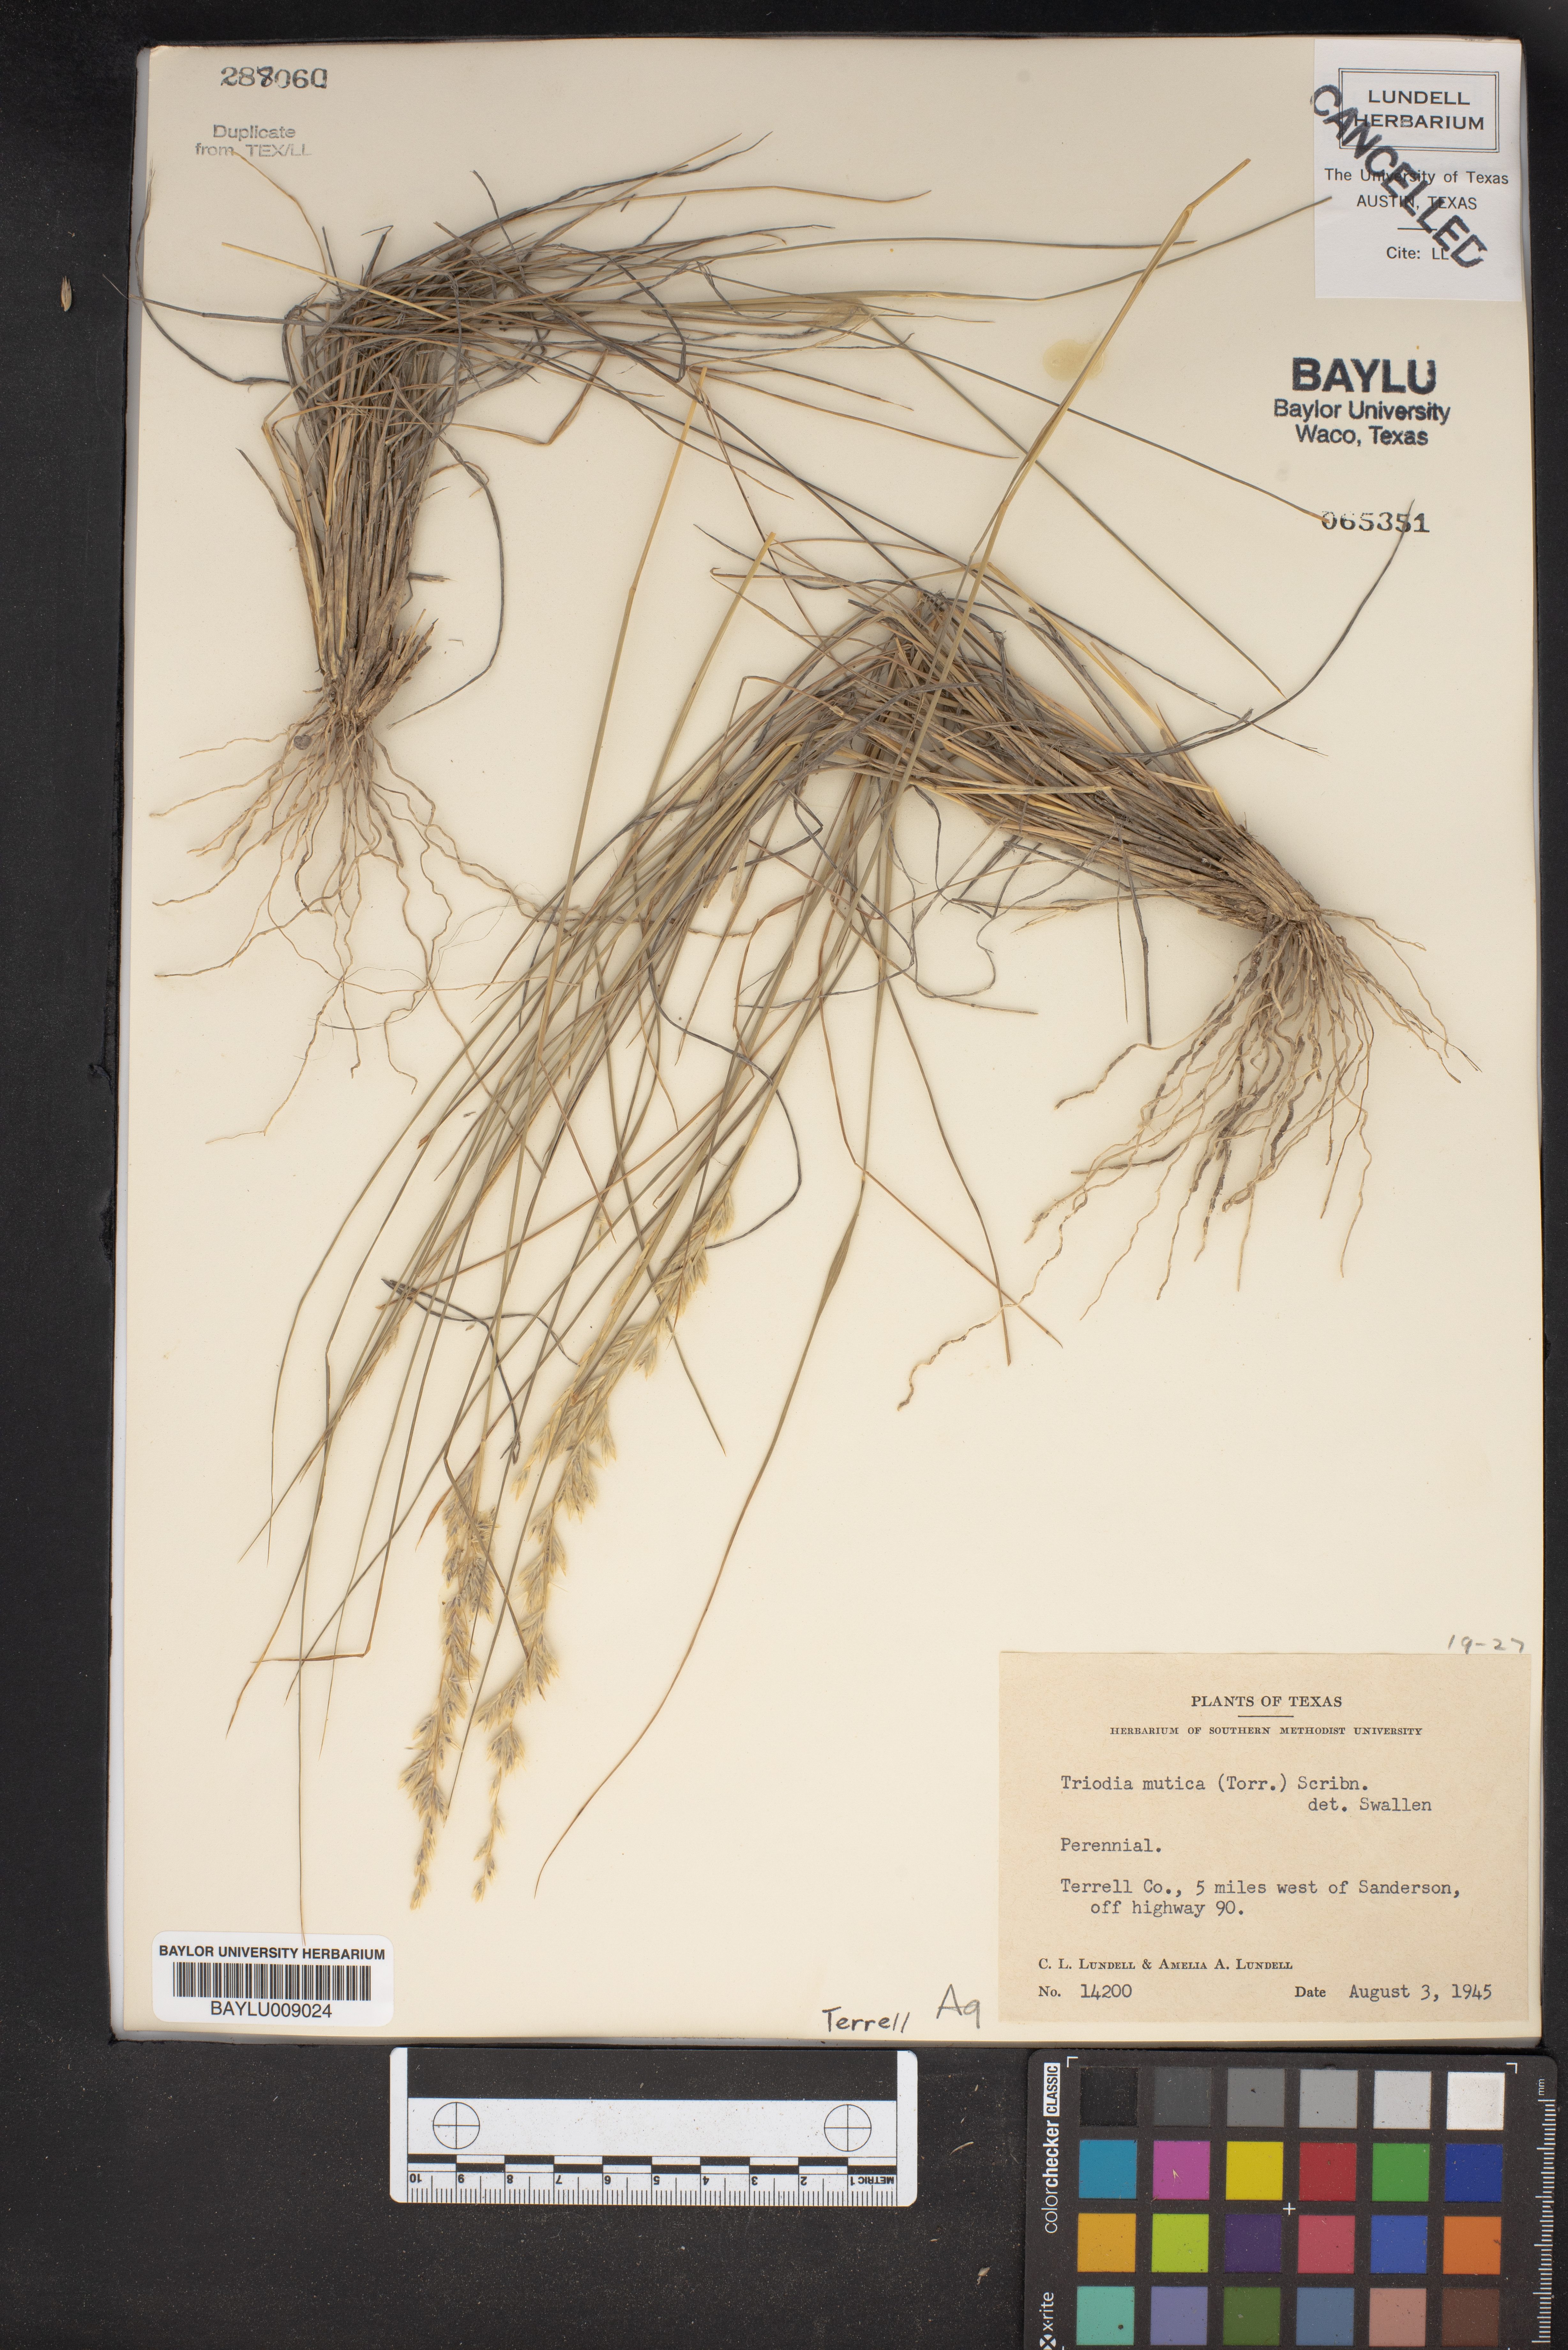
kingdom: Plantae
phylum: Tracheophyta
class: Liliopsida
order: Poales
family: Poaceae
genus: Tridentopsis
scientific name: Tridentopsis mutica
